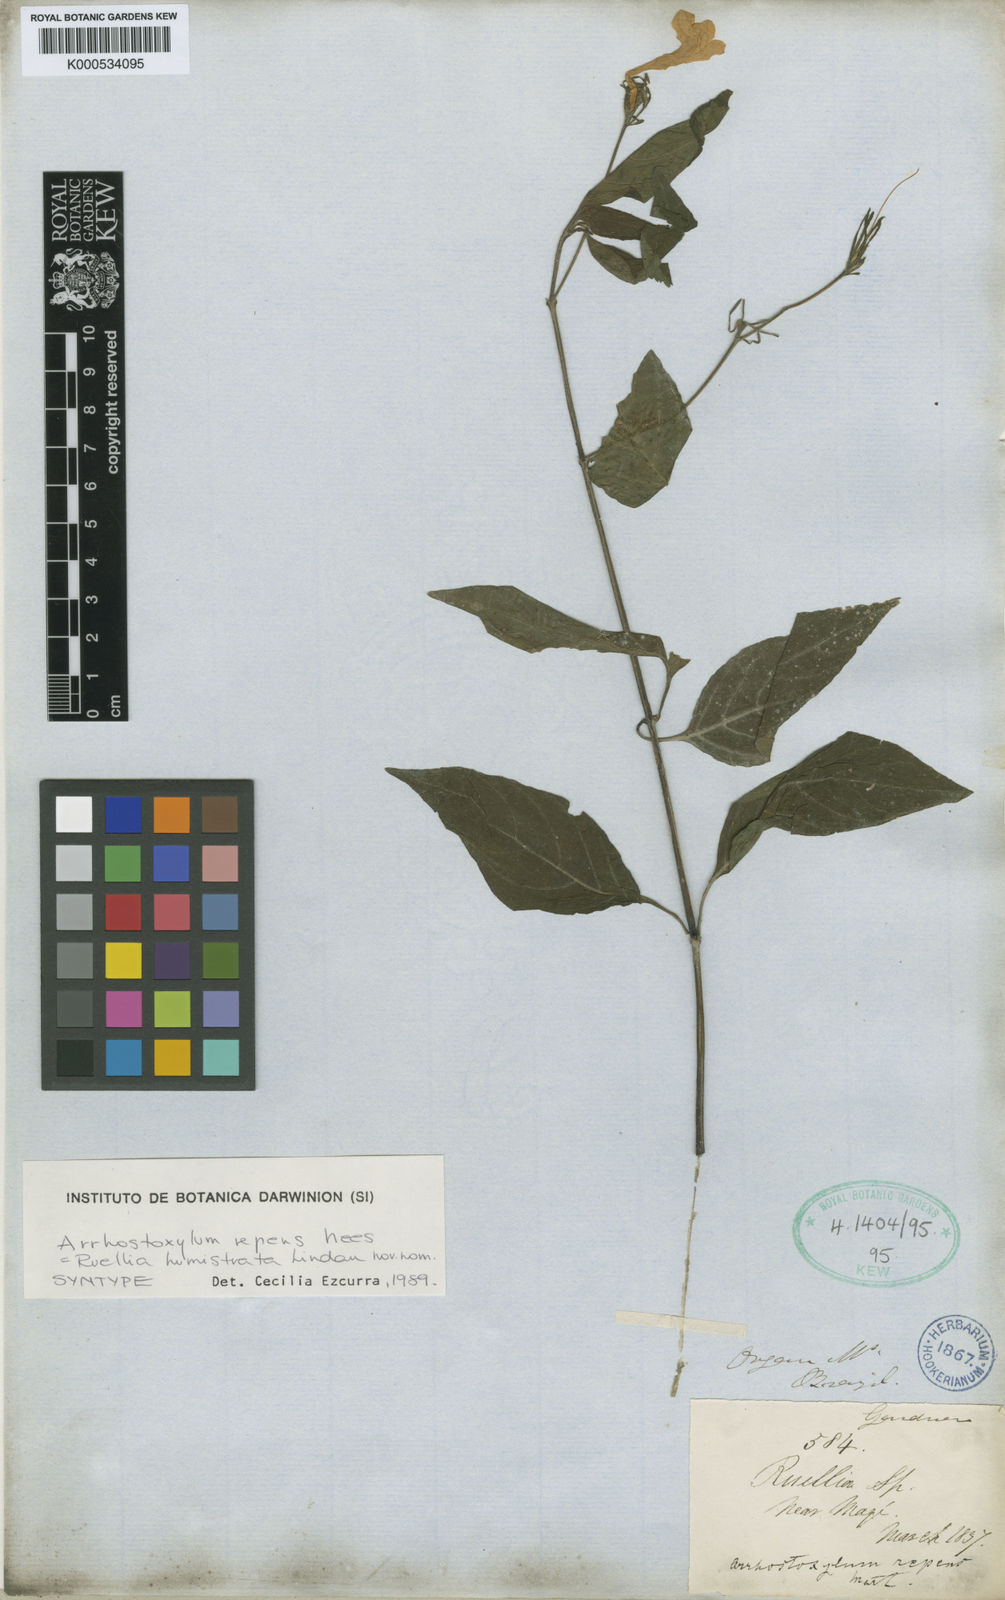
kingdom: Plantae
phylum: Tracheophyta
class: Magnoliopsida
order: Lamiales
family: Acanthaceae
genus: Ruellia
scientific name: Ruellia Arrhostoxylum repens
